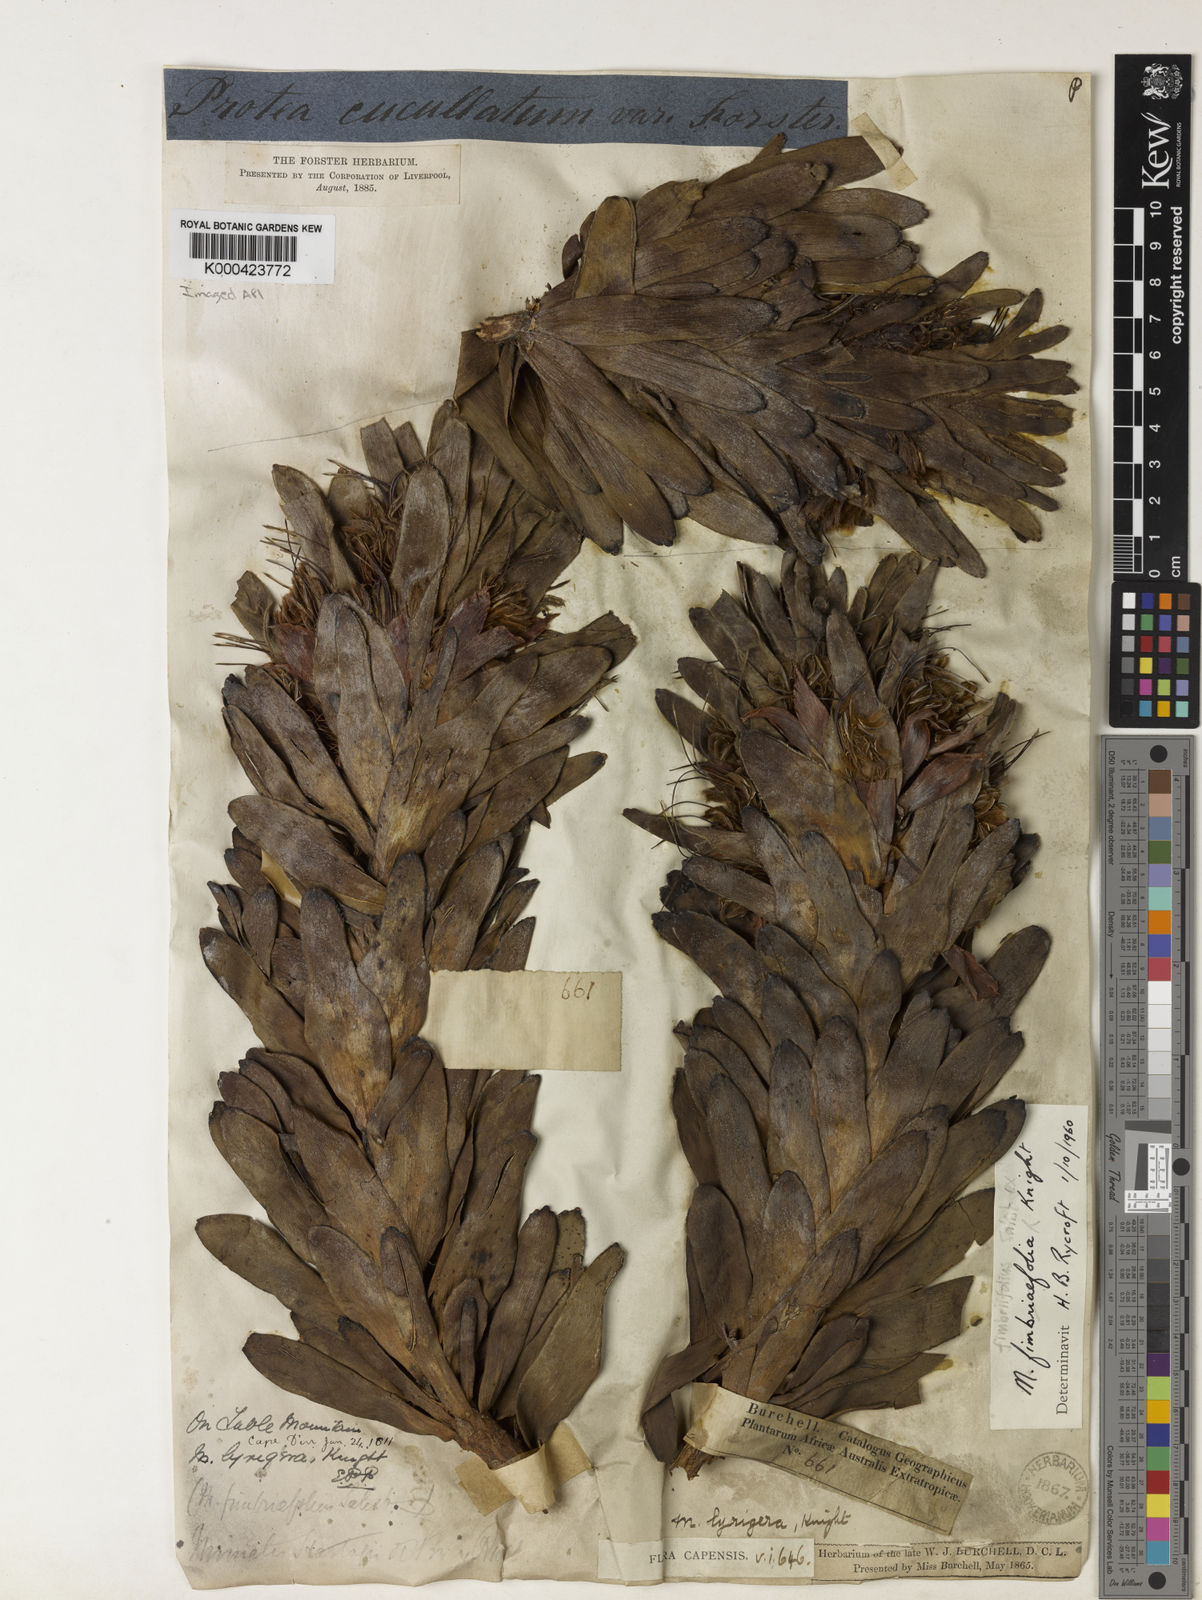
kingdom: Plantae
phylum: Tracheophyta
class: Magnoliopsida
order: Proteales
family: Proteaceae
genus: Mimetes
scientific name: Mimetes fimbriifolius
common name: Fringed bottlebrush
